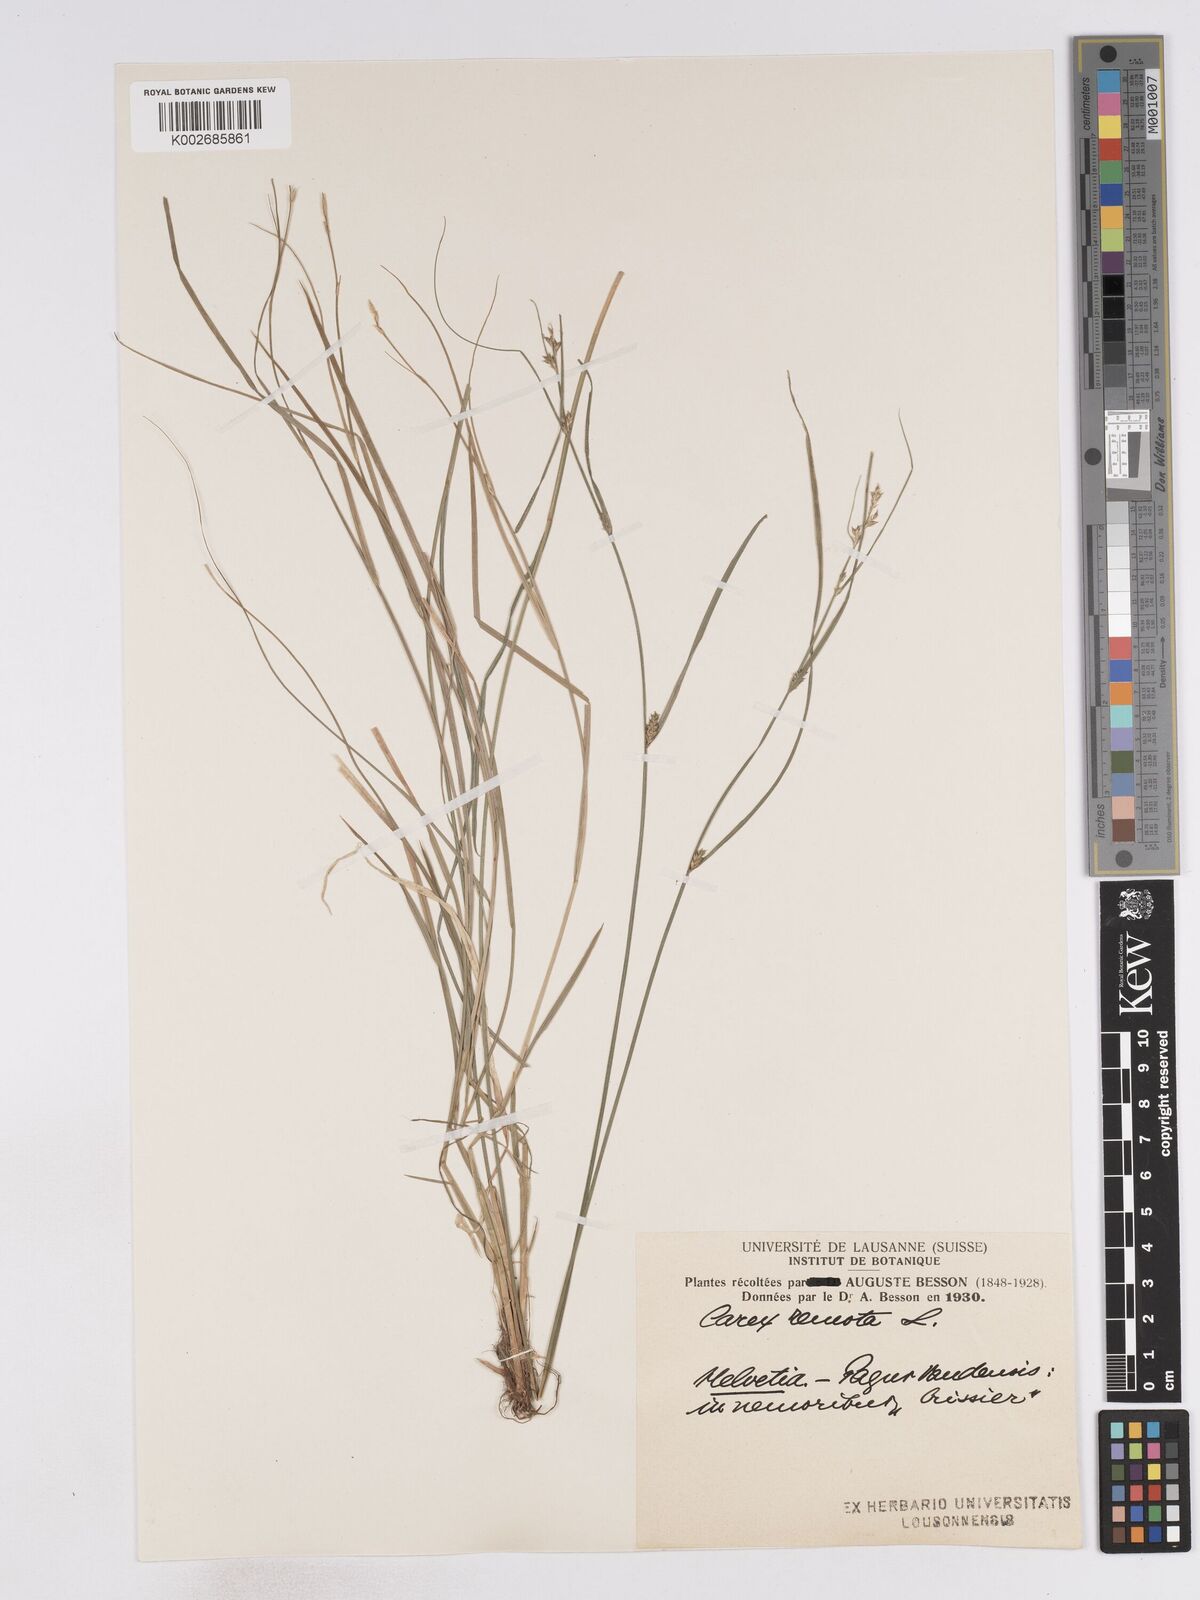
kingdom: Plantae
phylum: Tracheophyta
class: Liliopsida
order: Poales
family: Cyperaceae
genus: Carex
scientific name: Carex remota
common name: Remote sedge
